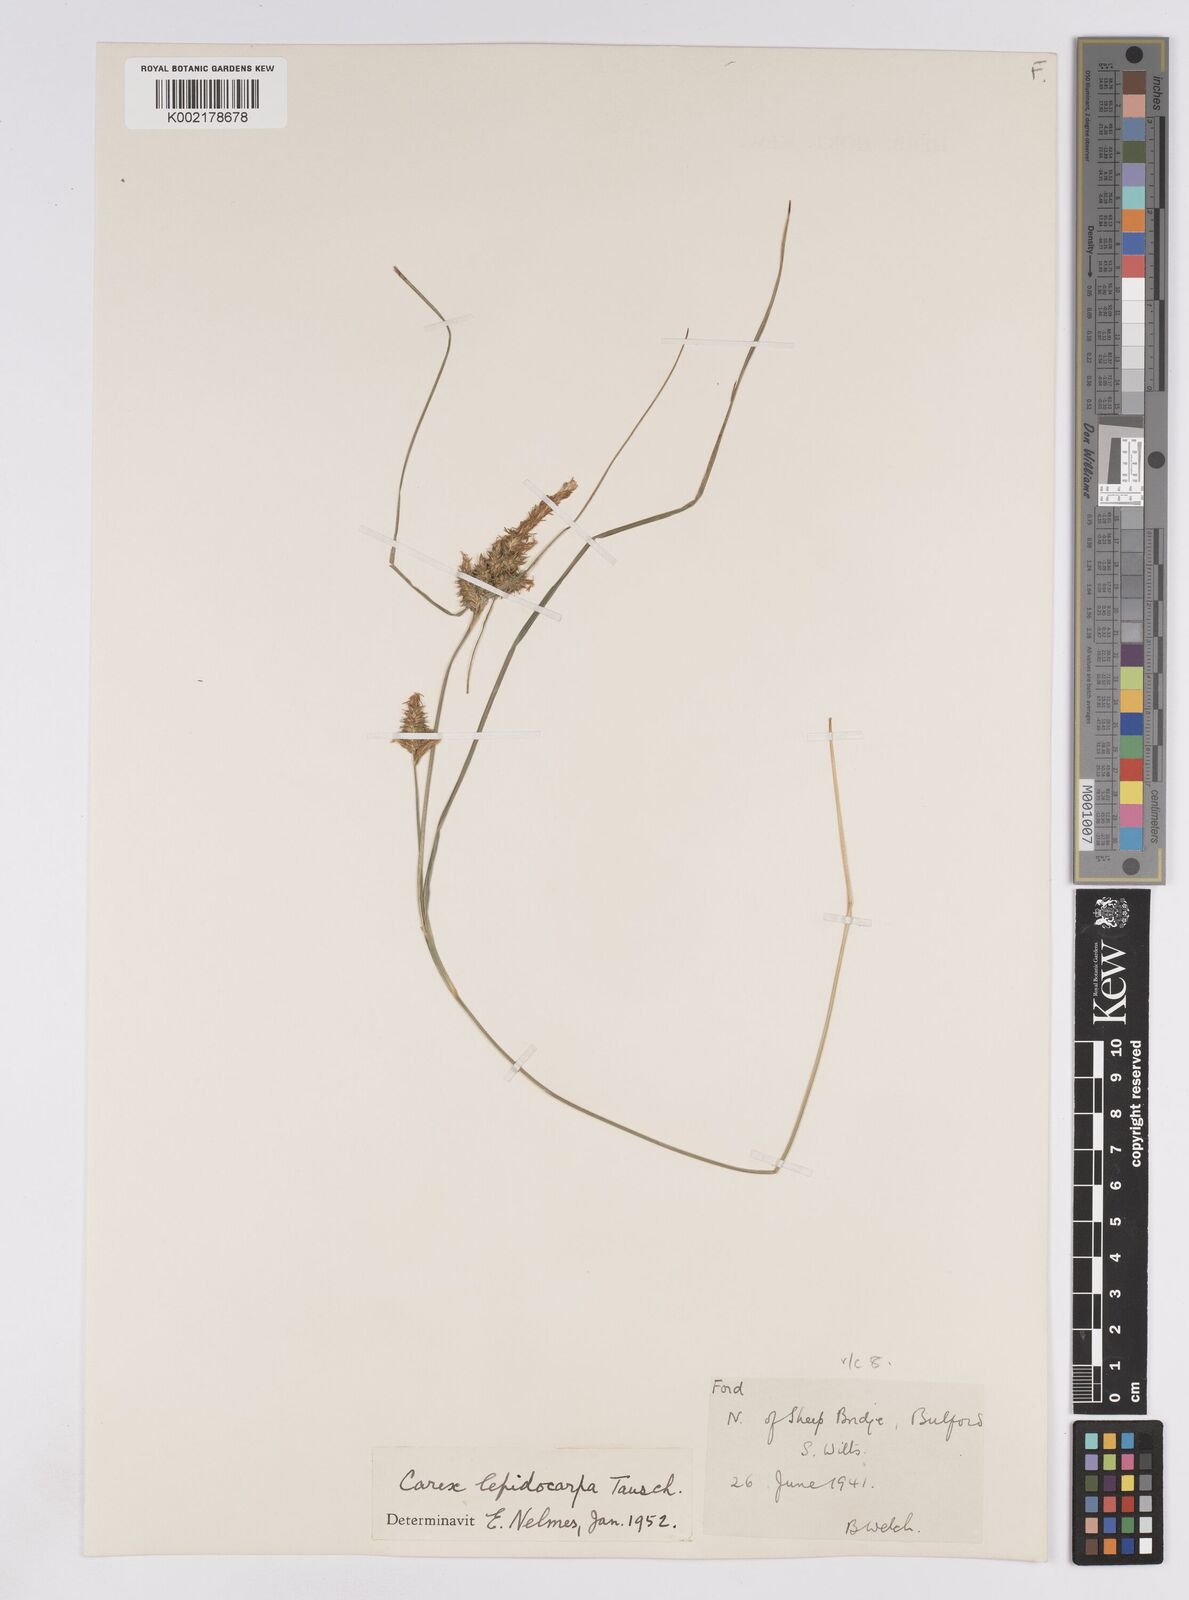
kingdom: Plantae
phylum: Tracheophyta
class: Liliopsida
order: Poales
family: Cyperaceae
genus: Carex
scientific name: Carex lepidocarpa
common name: Long-stalked yellow-sedge
